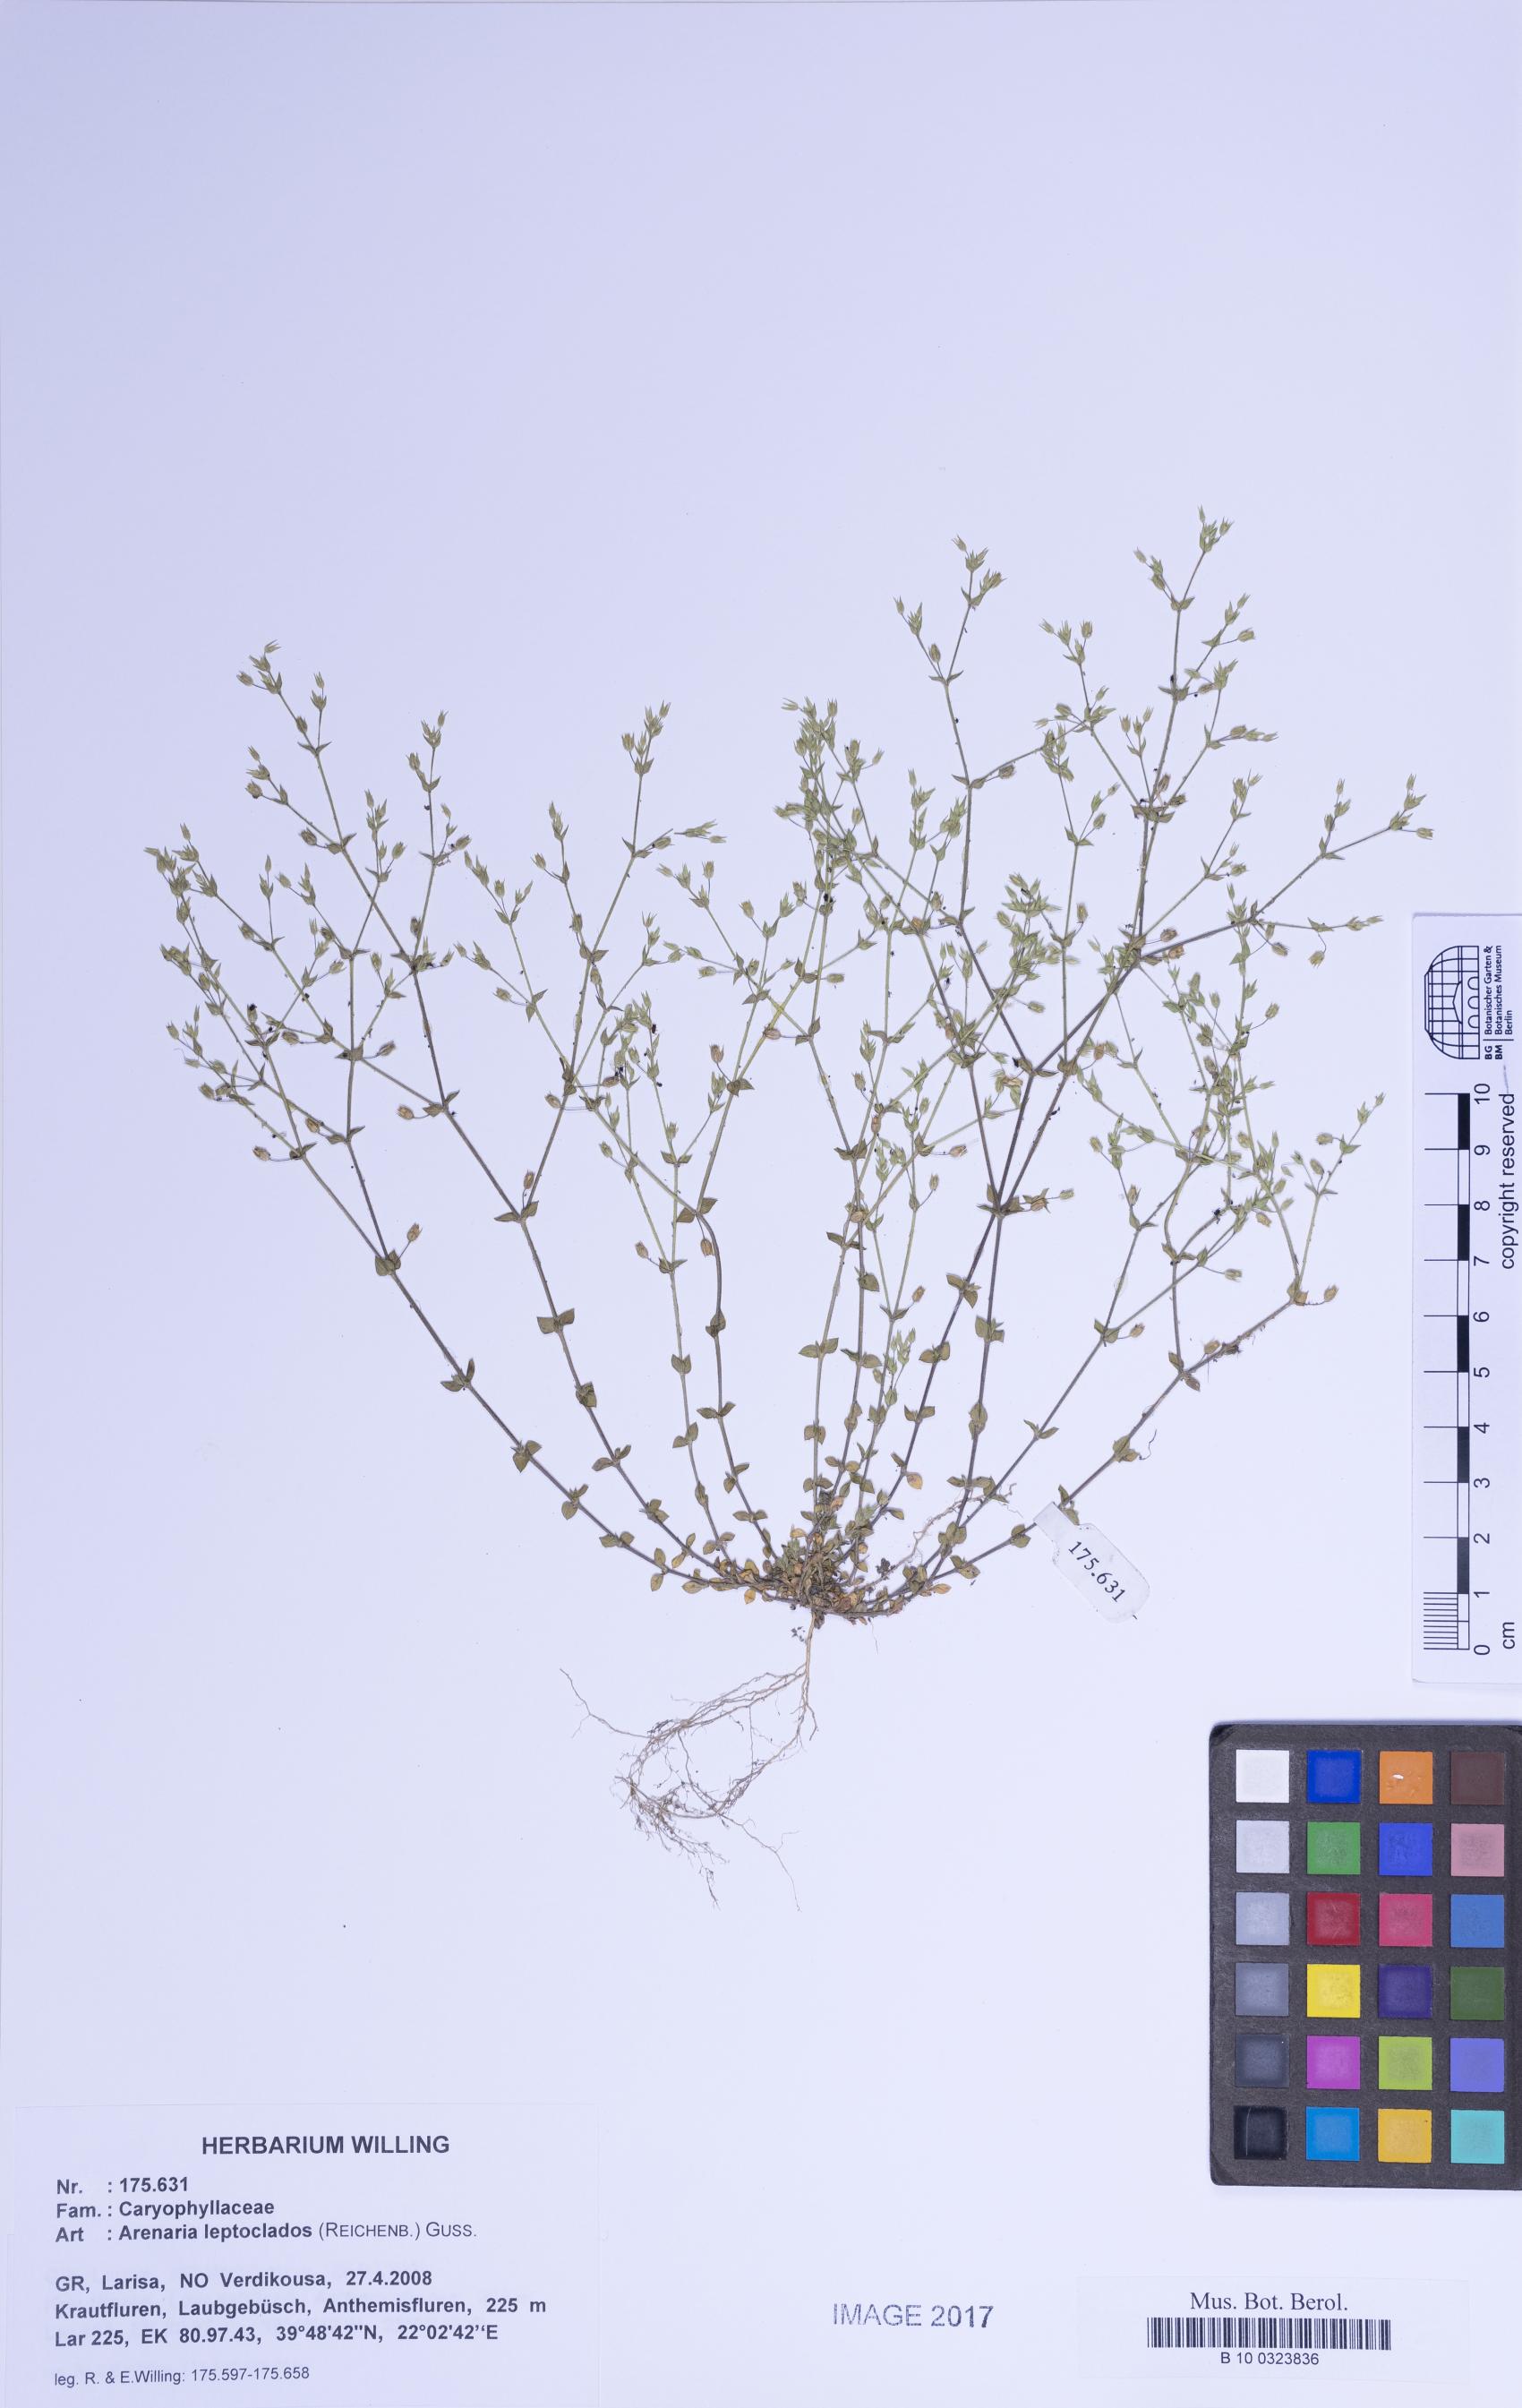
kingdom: Plantae
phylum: Tracheophyta
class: Magnoliopsida
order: Caryophyllales
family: Caryophyllaceae
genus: Arenaria
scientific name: Arenaria leptoclados
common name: Thyme-leaved sandwort
